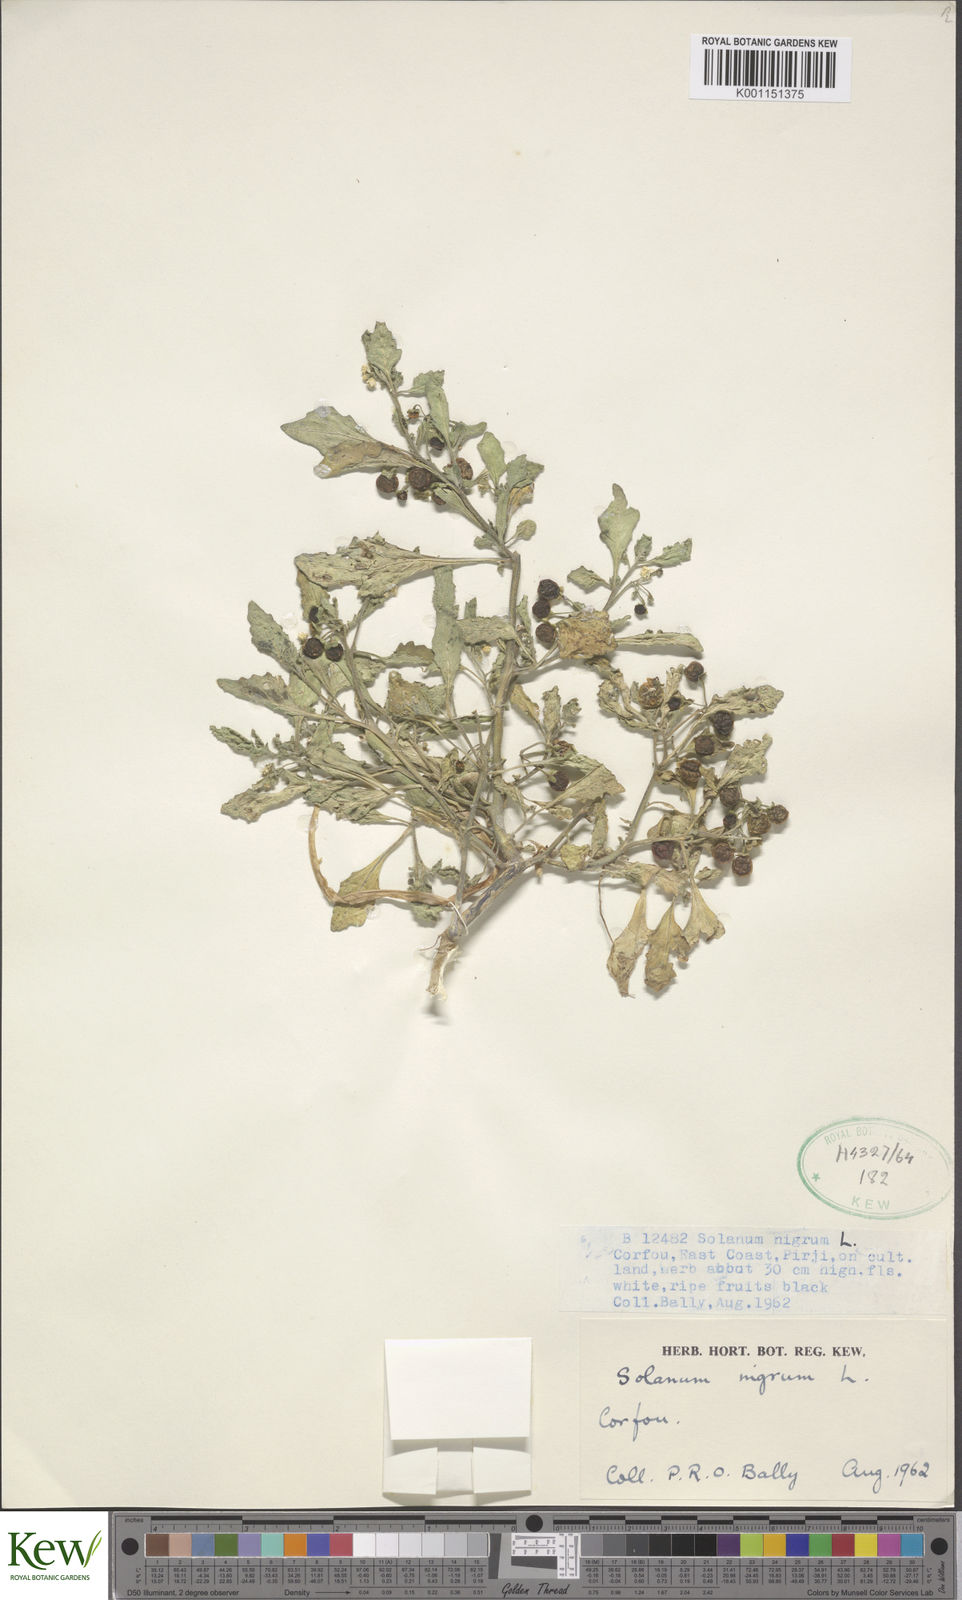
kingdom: Plantae
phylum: Tracheophyta
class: Magnoliopsida
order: Solanales
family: Solanaceae
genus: Solanum
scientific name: Solanum nigrum
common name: Black nightshade
